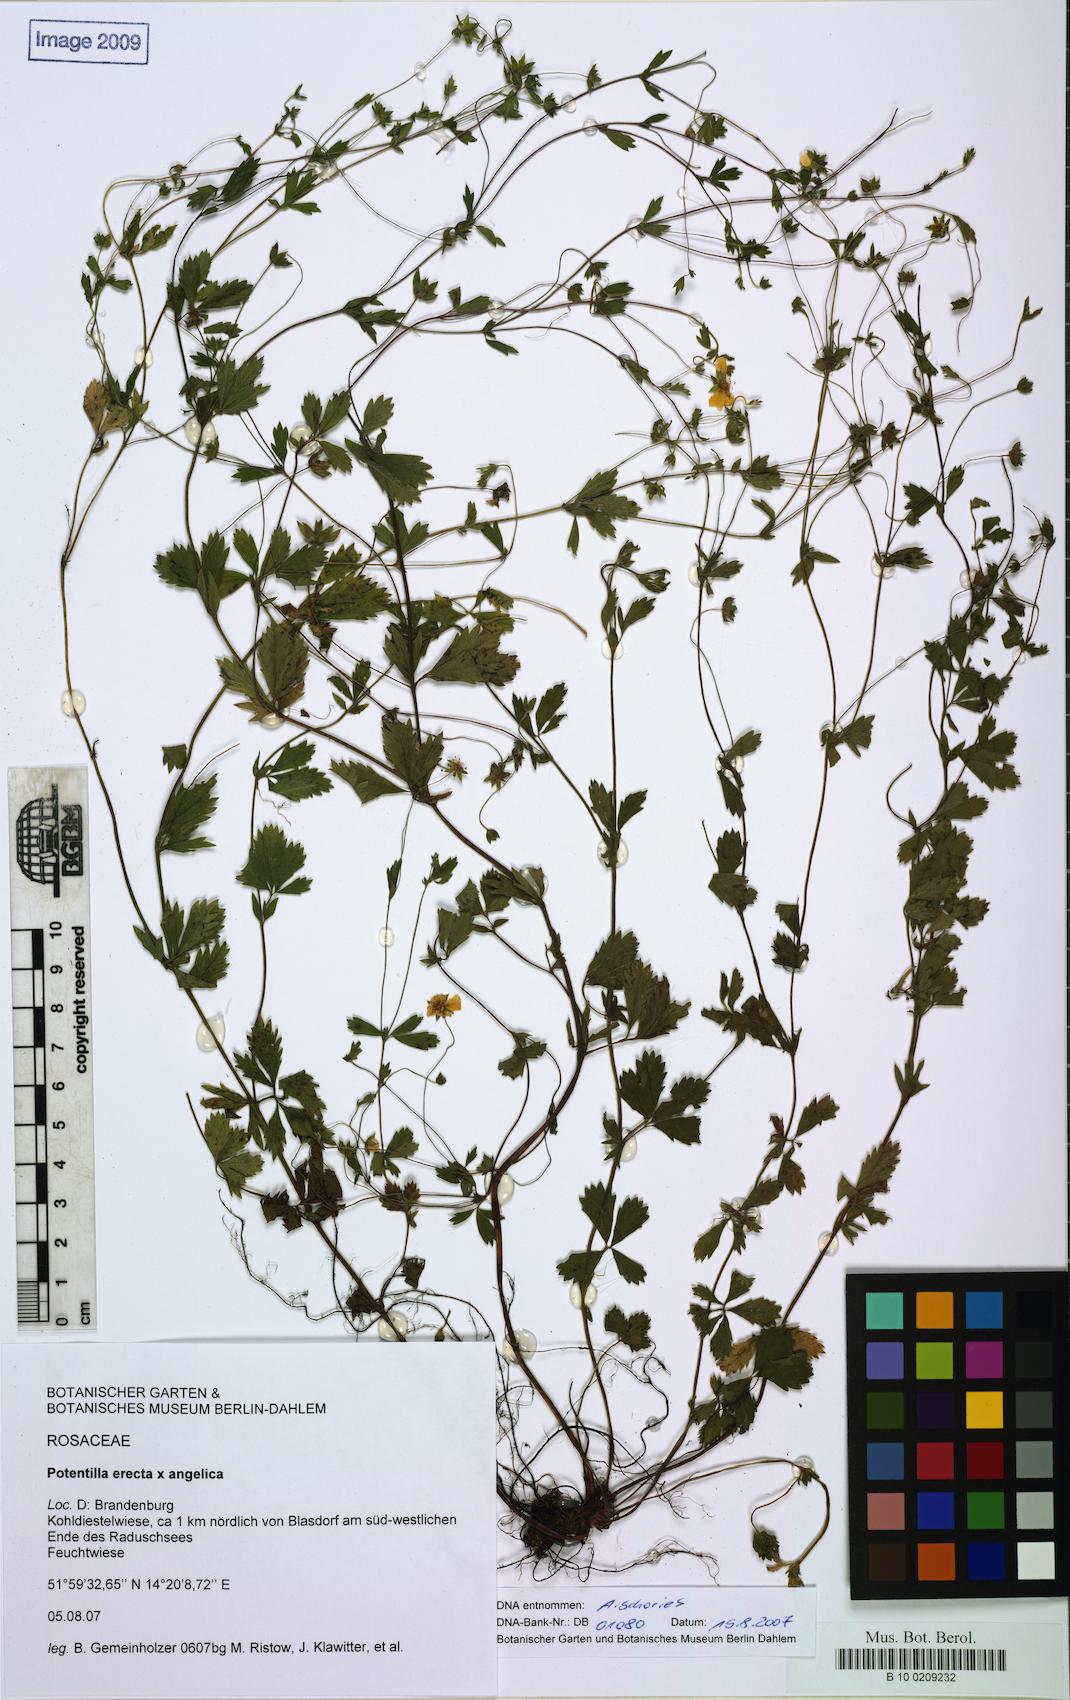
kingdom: Plantae
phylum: Tracheophyta
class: Magnoliopsida
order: Rosales
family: Rosaceae
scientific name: Rosaceae
